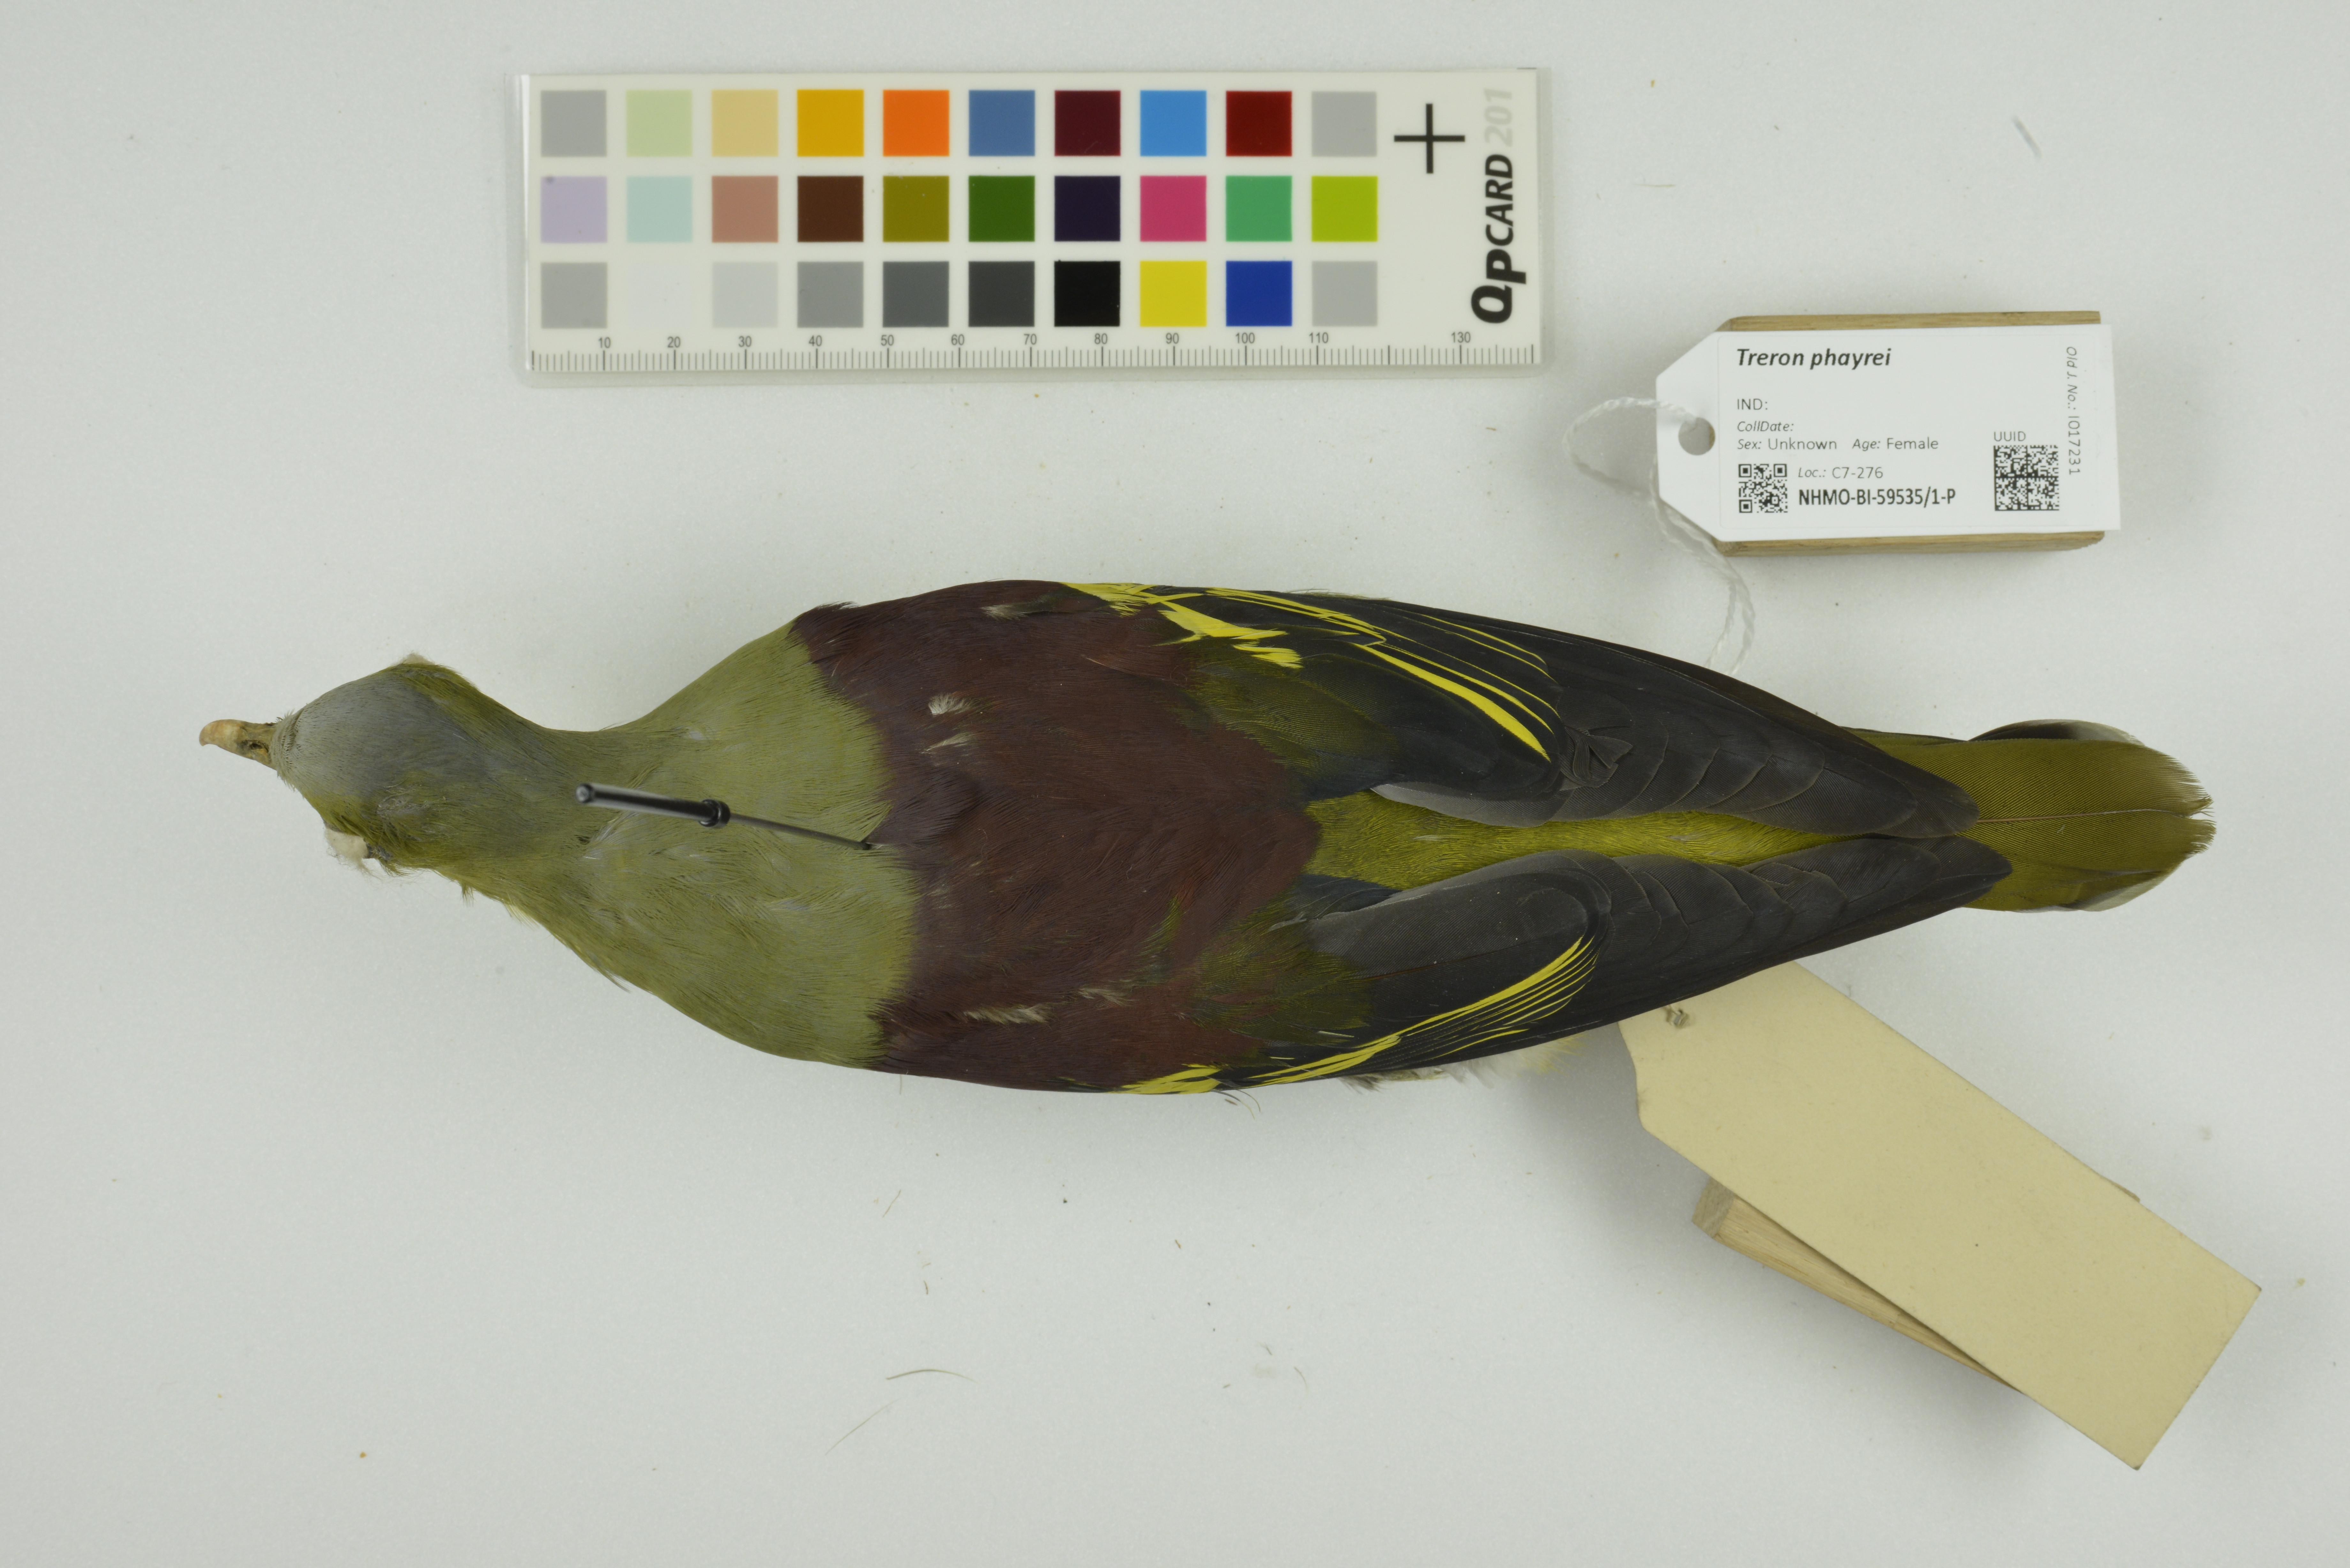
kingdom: Animalia
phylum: Chordata
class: Aves
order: Columbiformes
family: Columbidae
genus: Treron
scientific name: Treron phayrei
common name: Ashy-headed green pigeon
